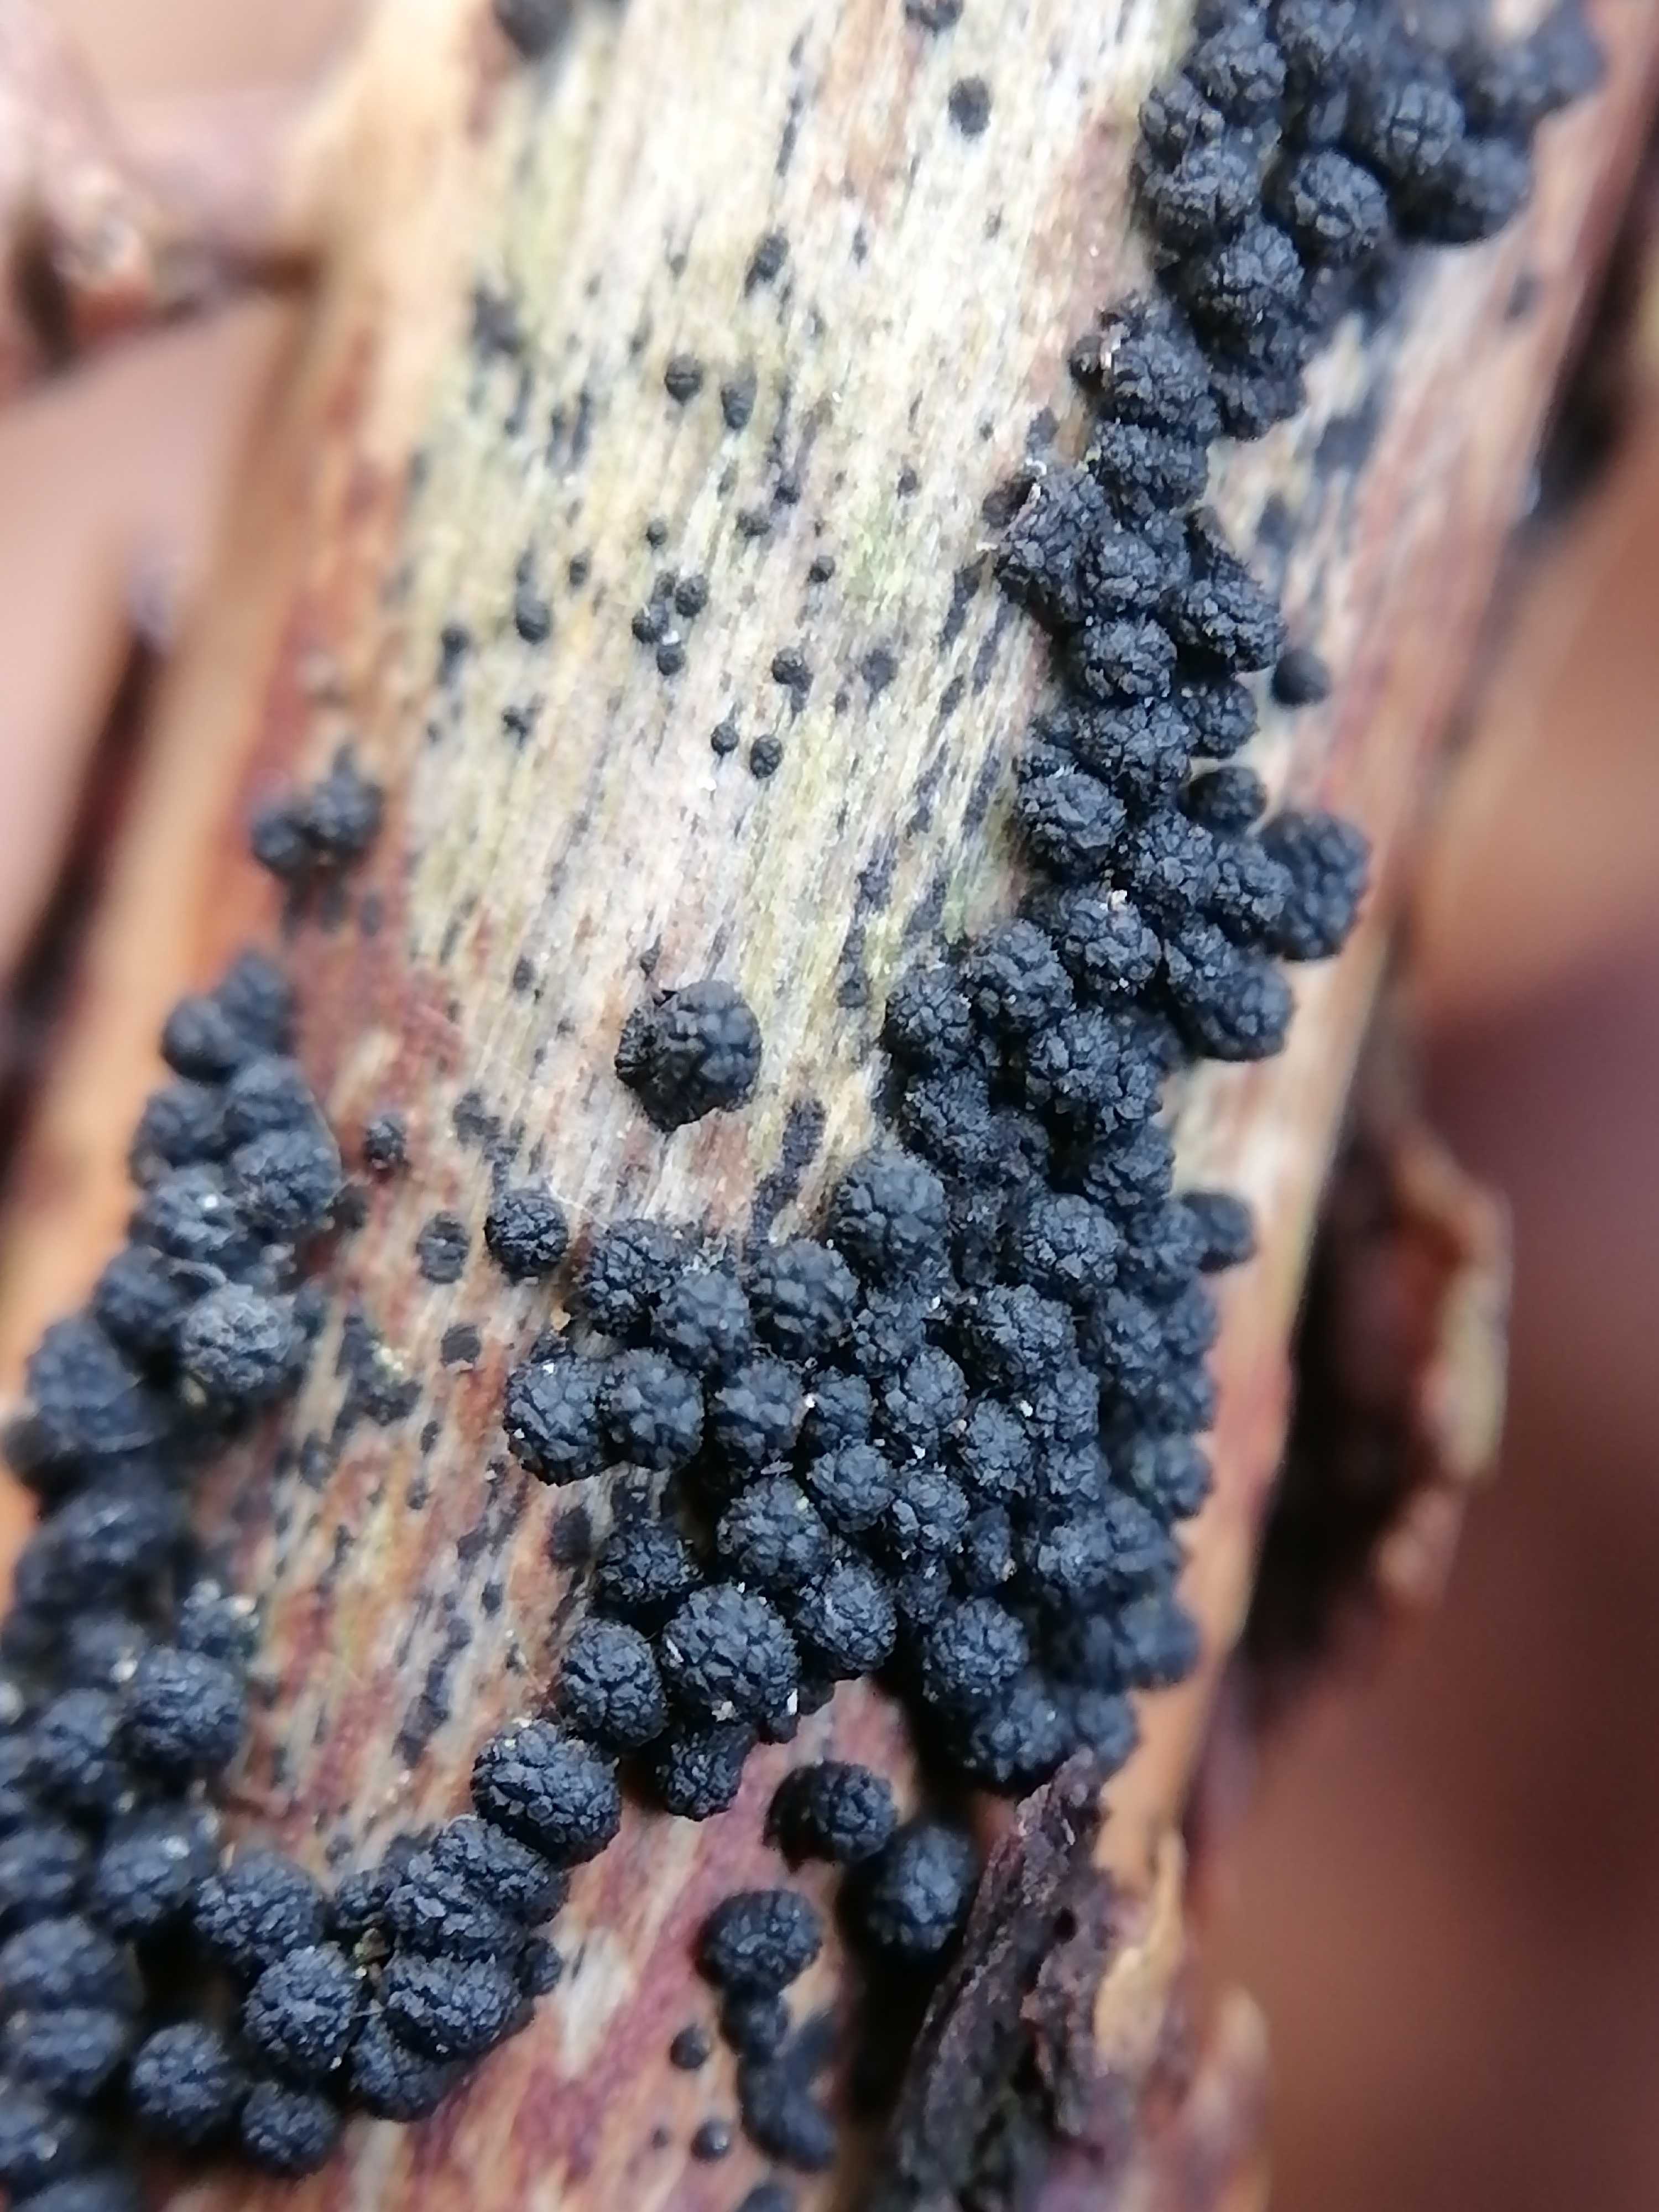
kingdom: Fungi
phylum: Ascomycota
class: Sordariomycetes
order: Coronophorales
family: Bertiaceae
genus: Bertia
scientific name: Bertia moriformis
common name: almindelig morbærkerne
